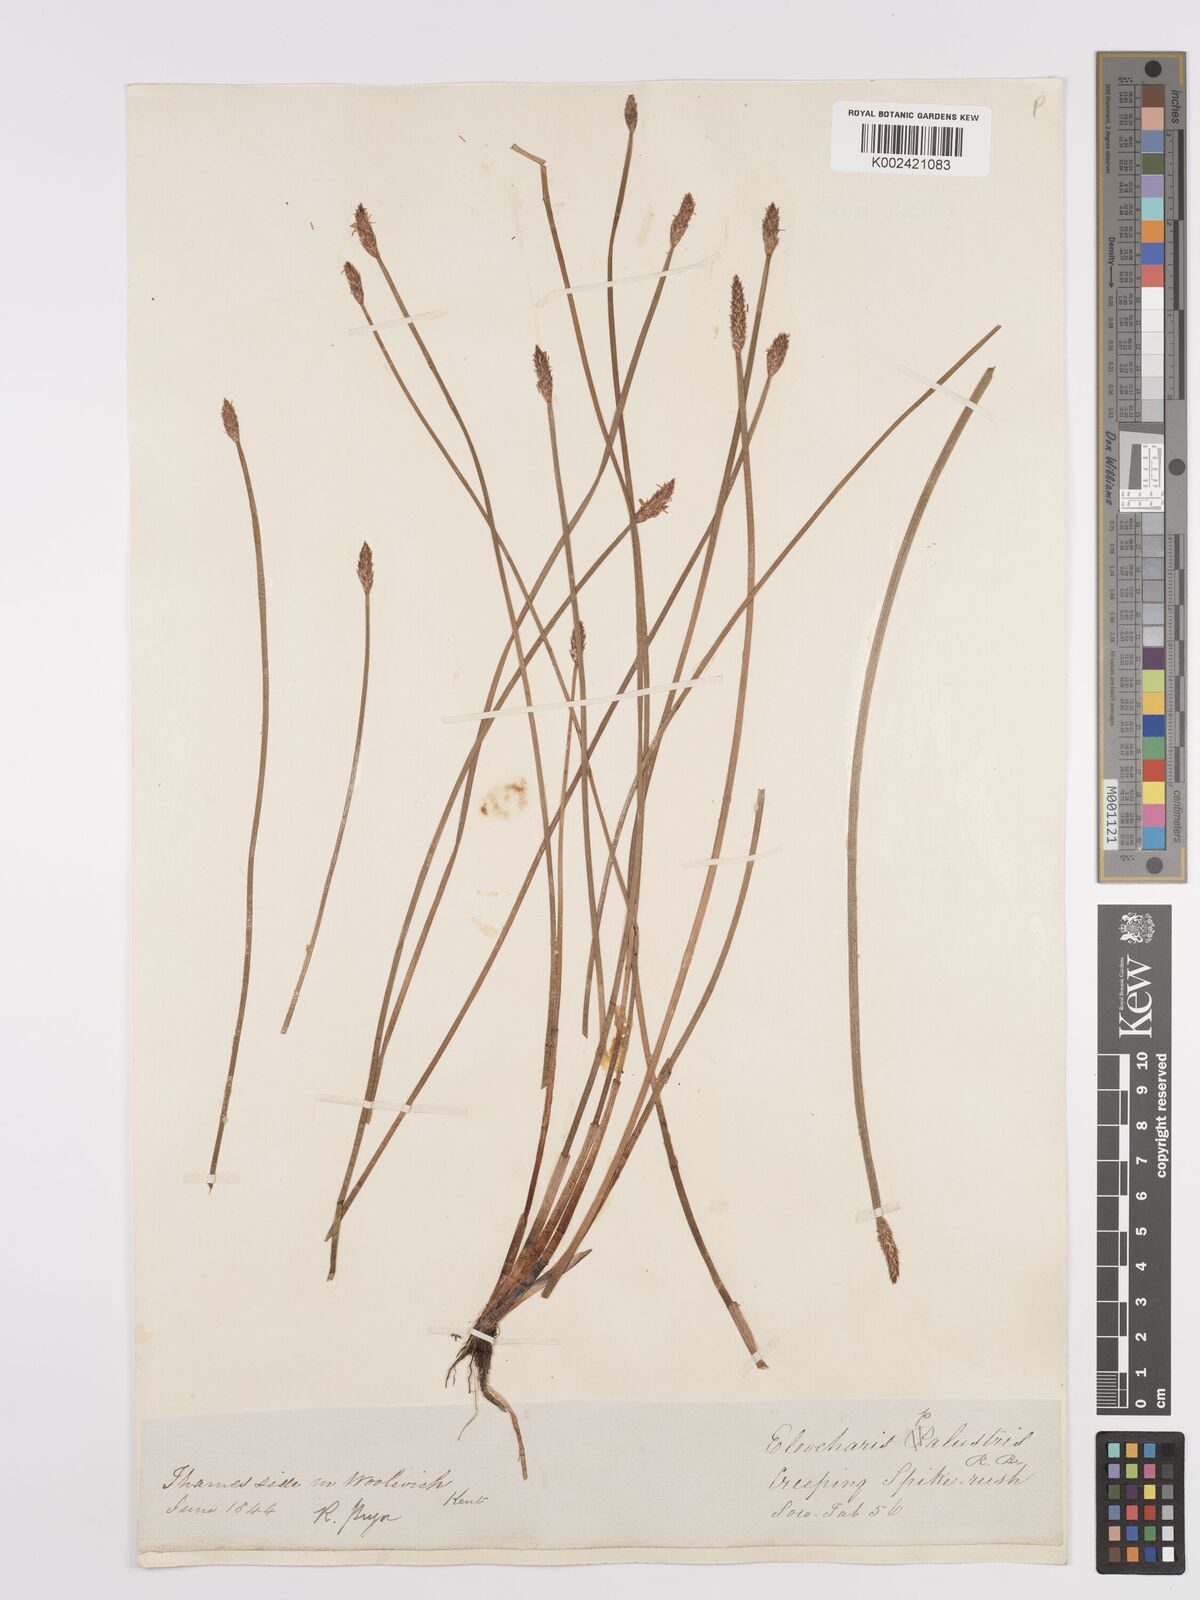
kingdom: Plantae
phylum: Tracheophyta
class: Liliopsida
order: Poales
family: Cyperaceae
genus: Eleocharis
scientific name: Eleocharis palustris
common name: Common spike-rush
